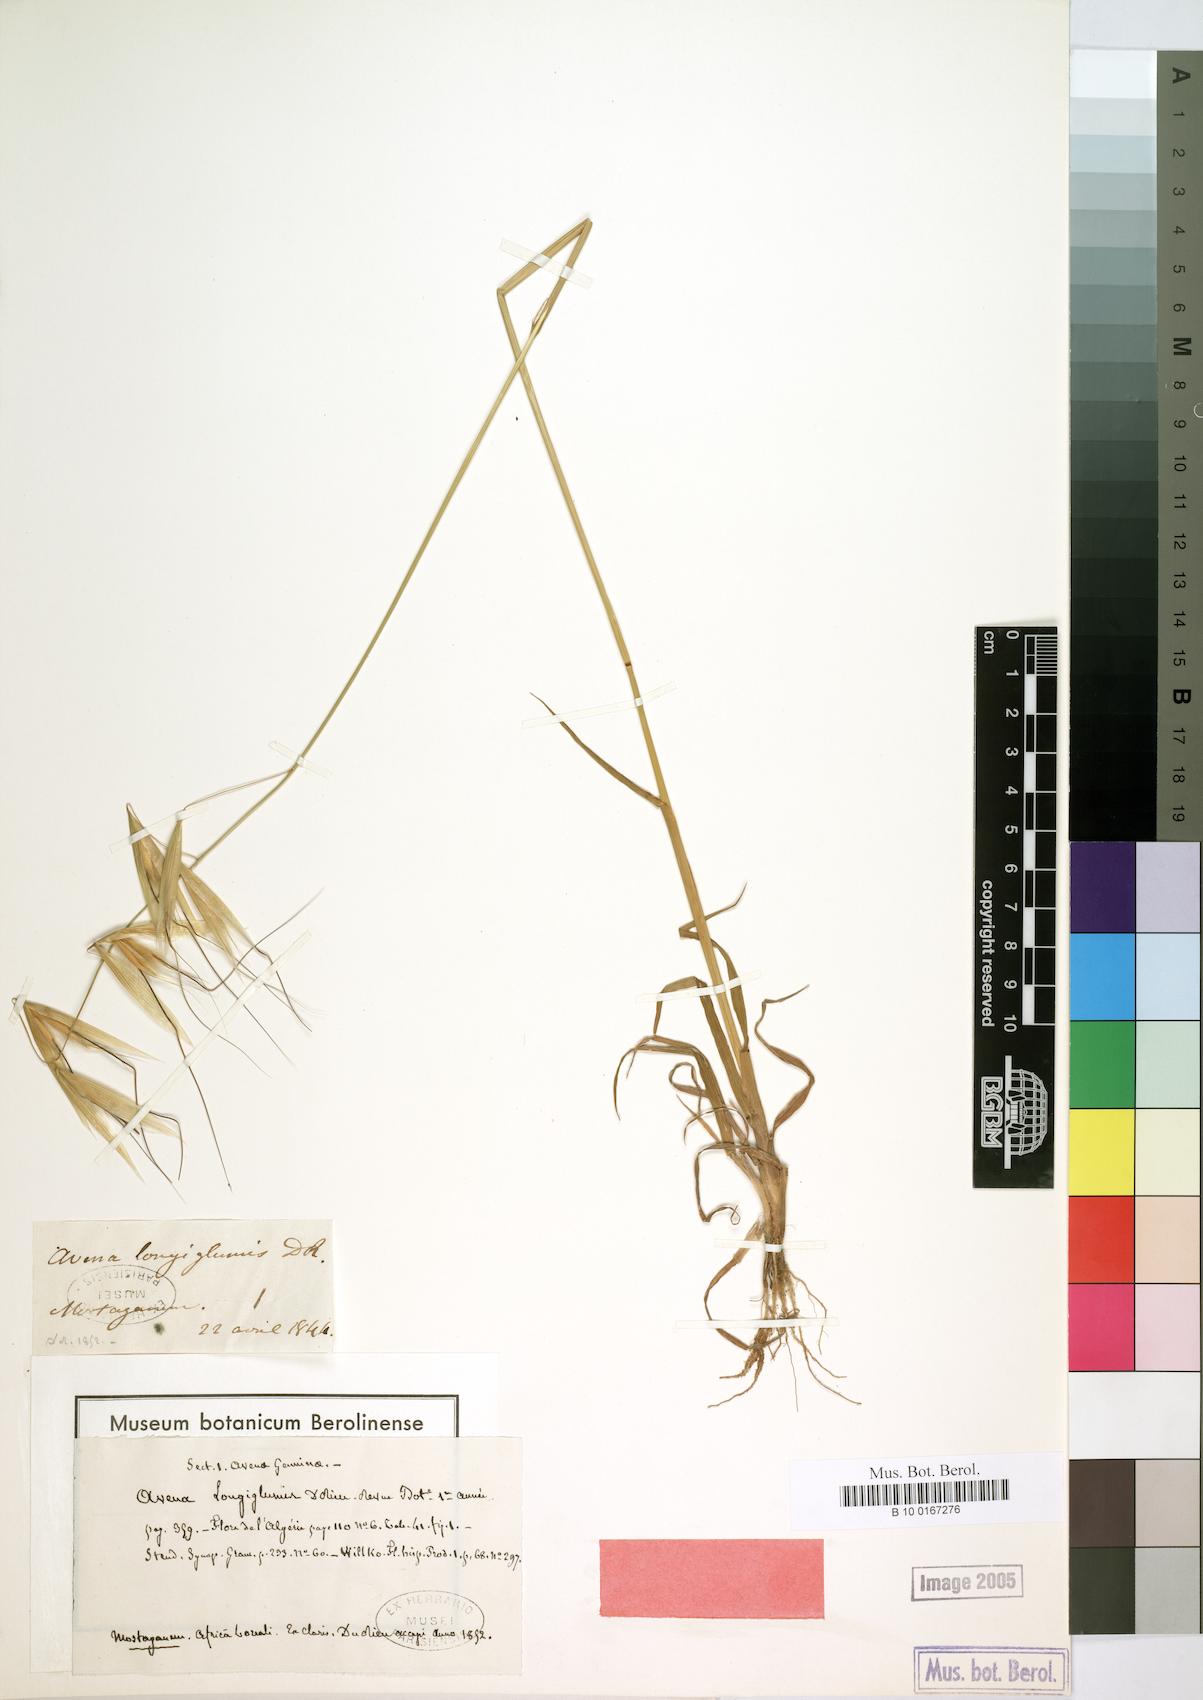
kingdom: Plantae
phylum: Tracheophyta
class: Liliopsida
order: Poales
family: Poaceae
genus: Avena
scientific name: Avena longiglumis
